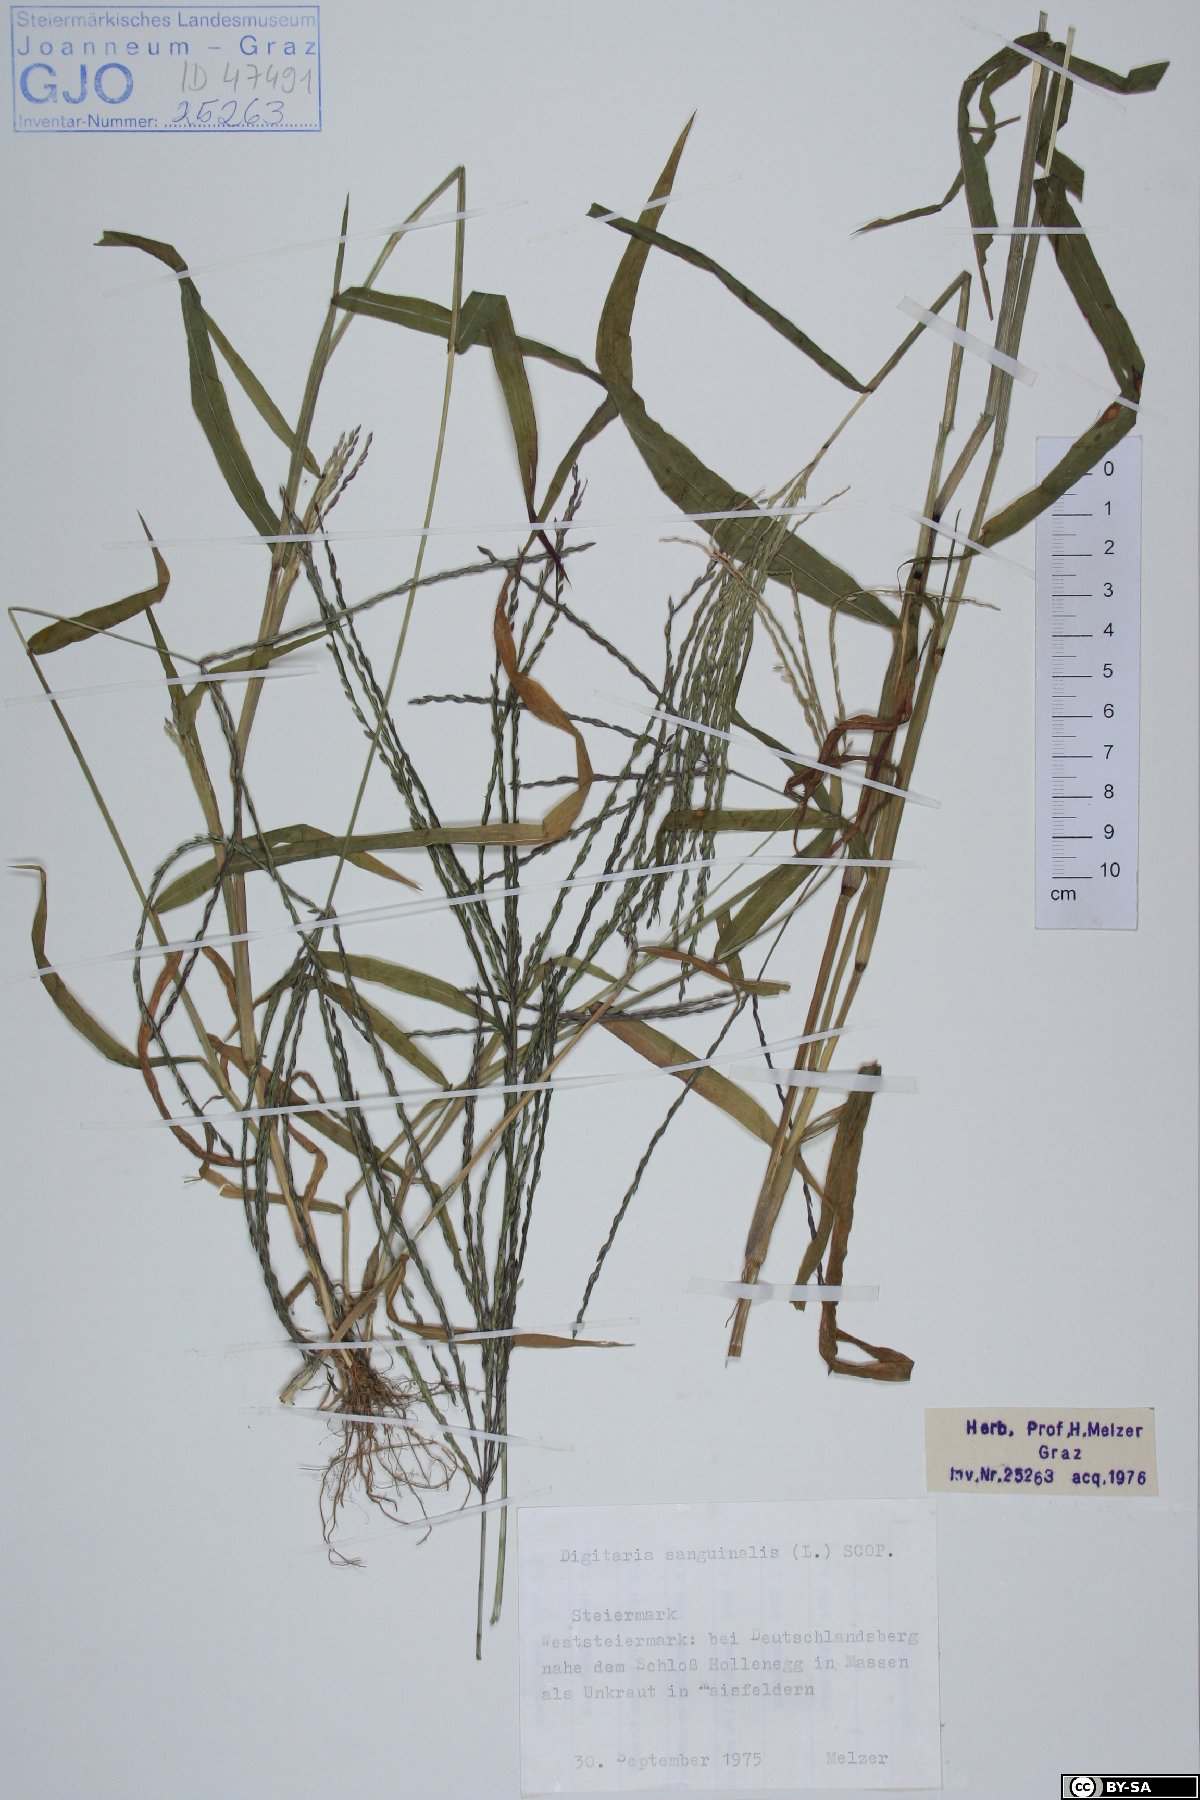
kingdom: Plantae
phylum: Tracheophyta
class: Liliopsida
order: Poales
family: Poaceae
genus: Digitaria
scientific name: Digitaria sanguinalis
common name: Hairy crabgrass
